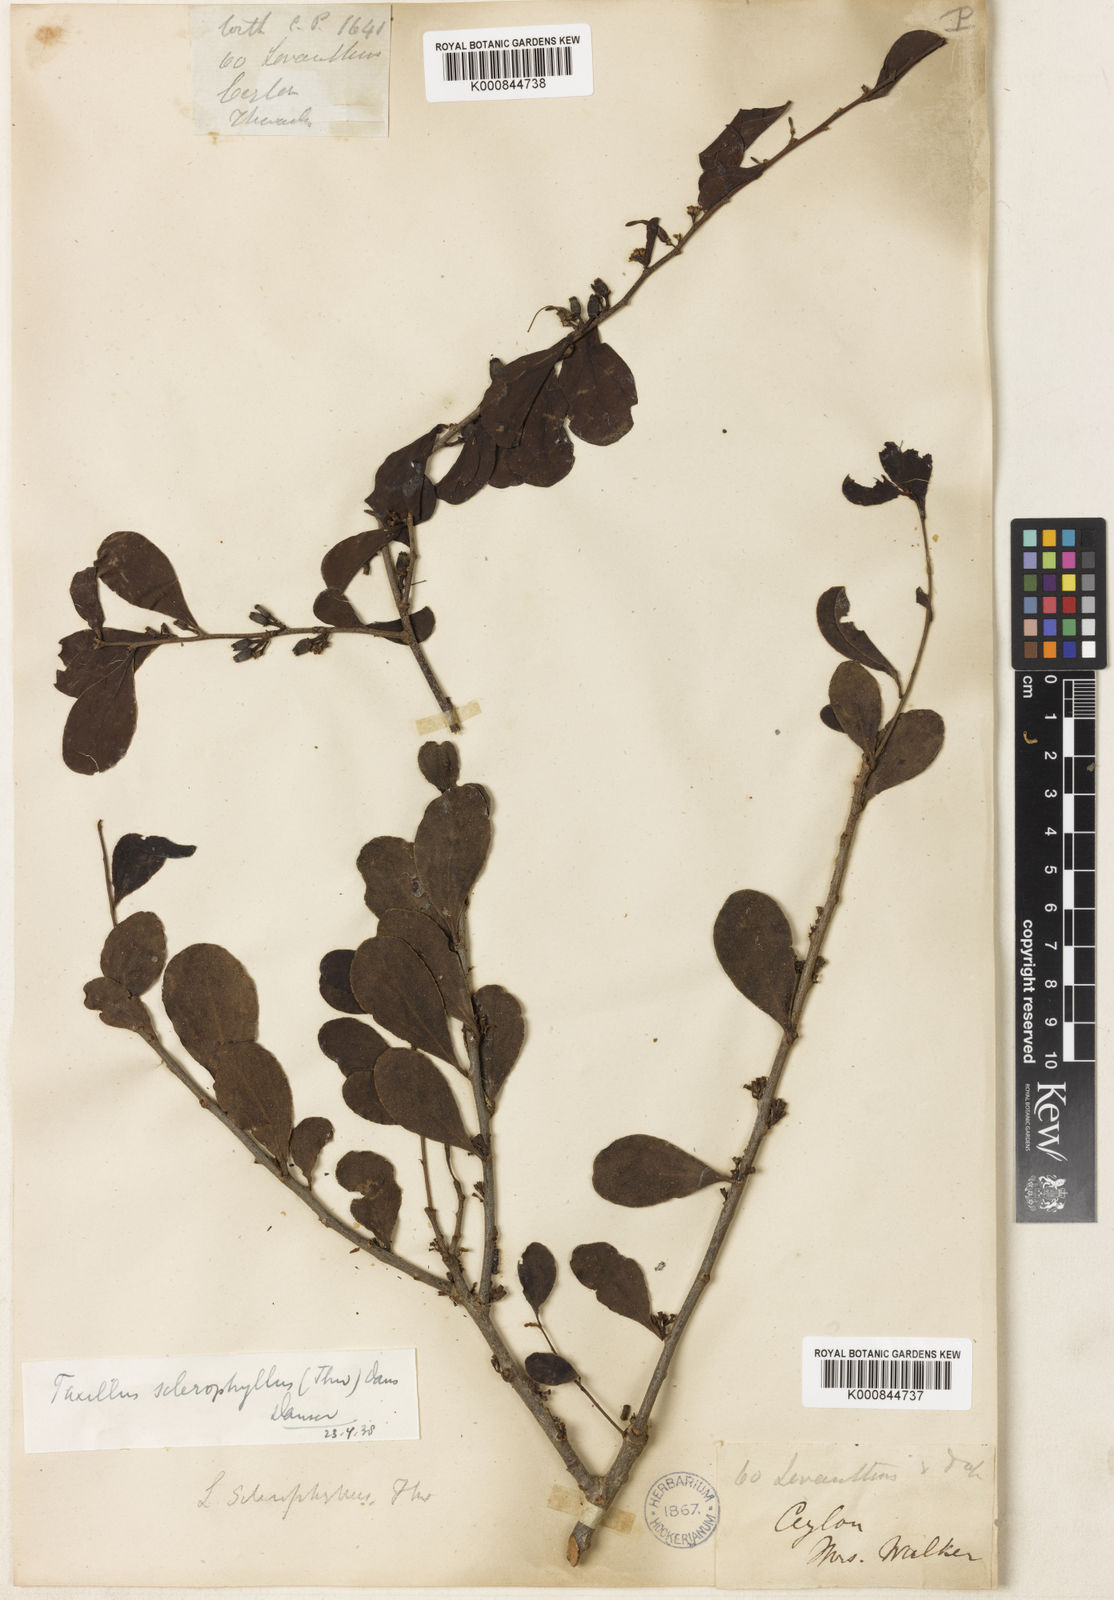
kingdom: Plantae
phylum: Tracheophyta
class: Magnoliopsida
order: Santalales
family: Loranthaceae
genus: Taxillus
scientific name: Taxillus sclerophyllus
